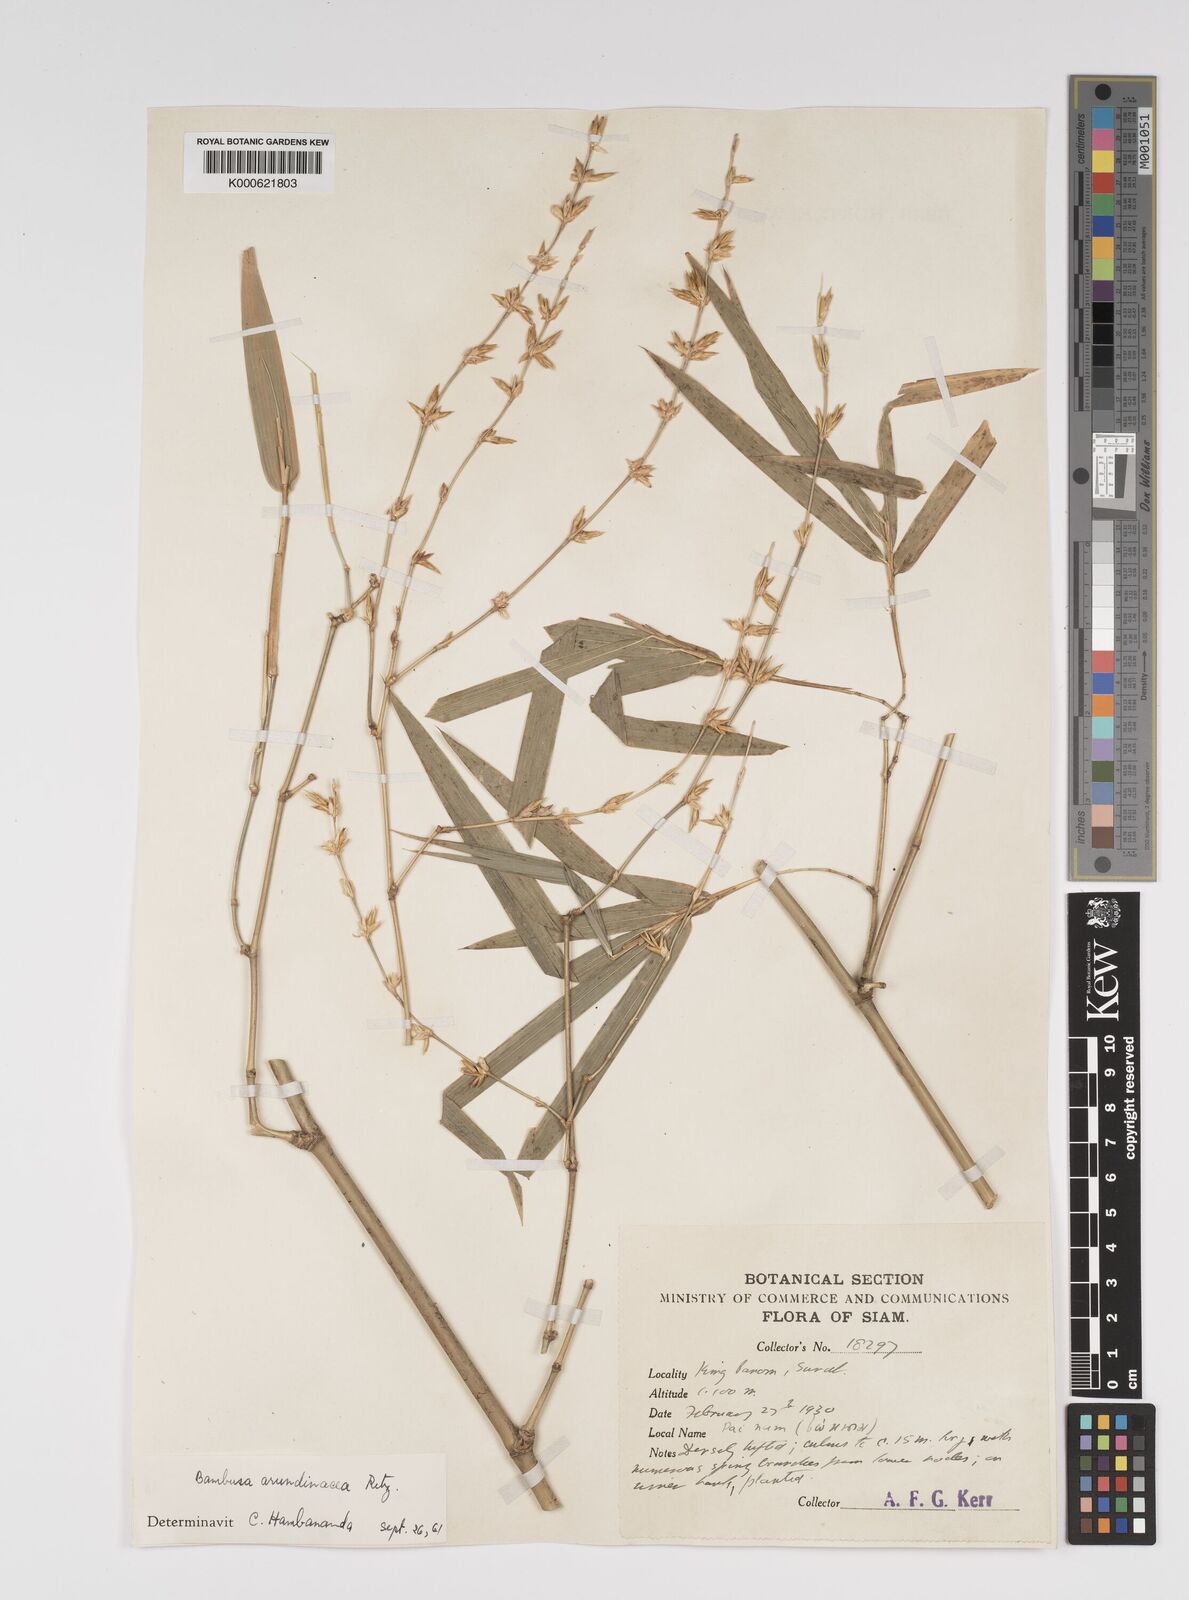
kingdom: Plantae
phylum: Tracheophyta
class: Liliopsida
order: Poales
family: Poaceae
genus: Bambusa
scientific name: Bambusa bambos
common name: Indian thorny bamboo
